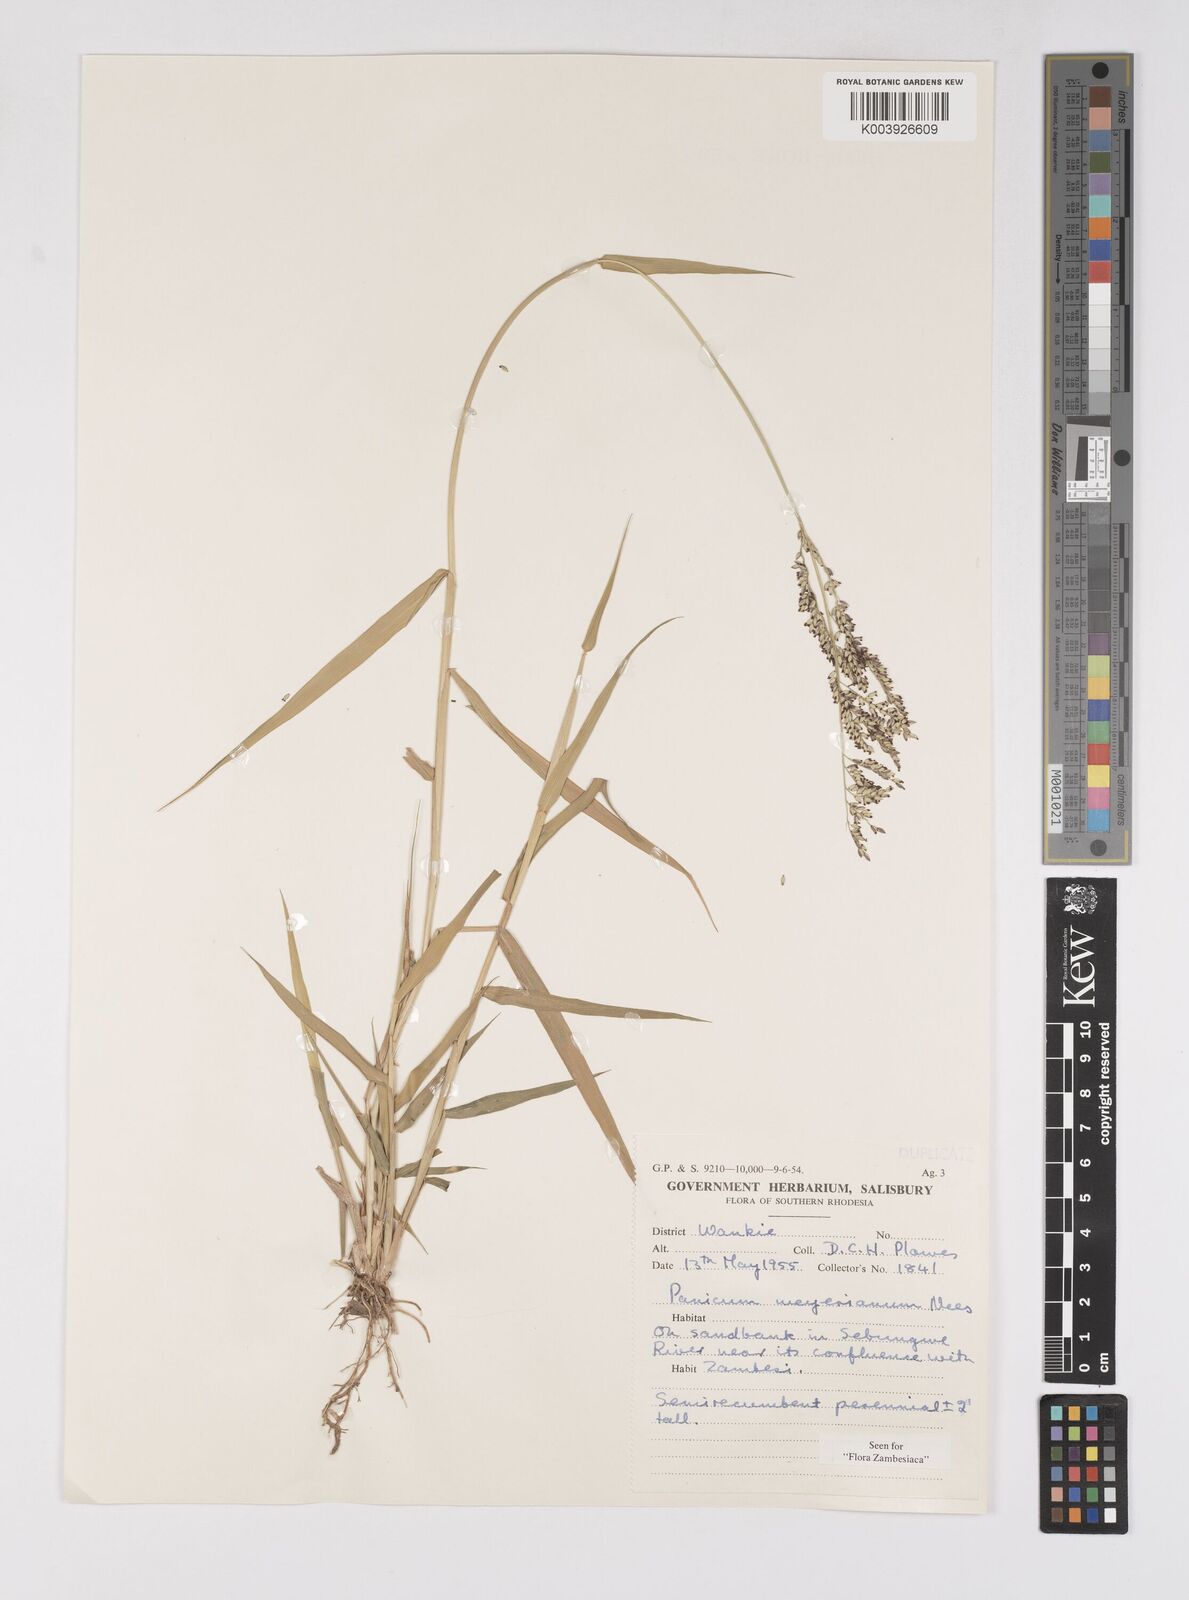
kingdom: Plantae
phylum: Tracheophyta
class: Liliopsida
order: Poales
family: Poaceae
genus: Eriochloa
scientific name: Eriochloa meyeriana
